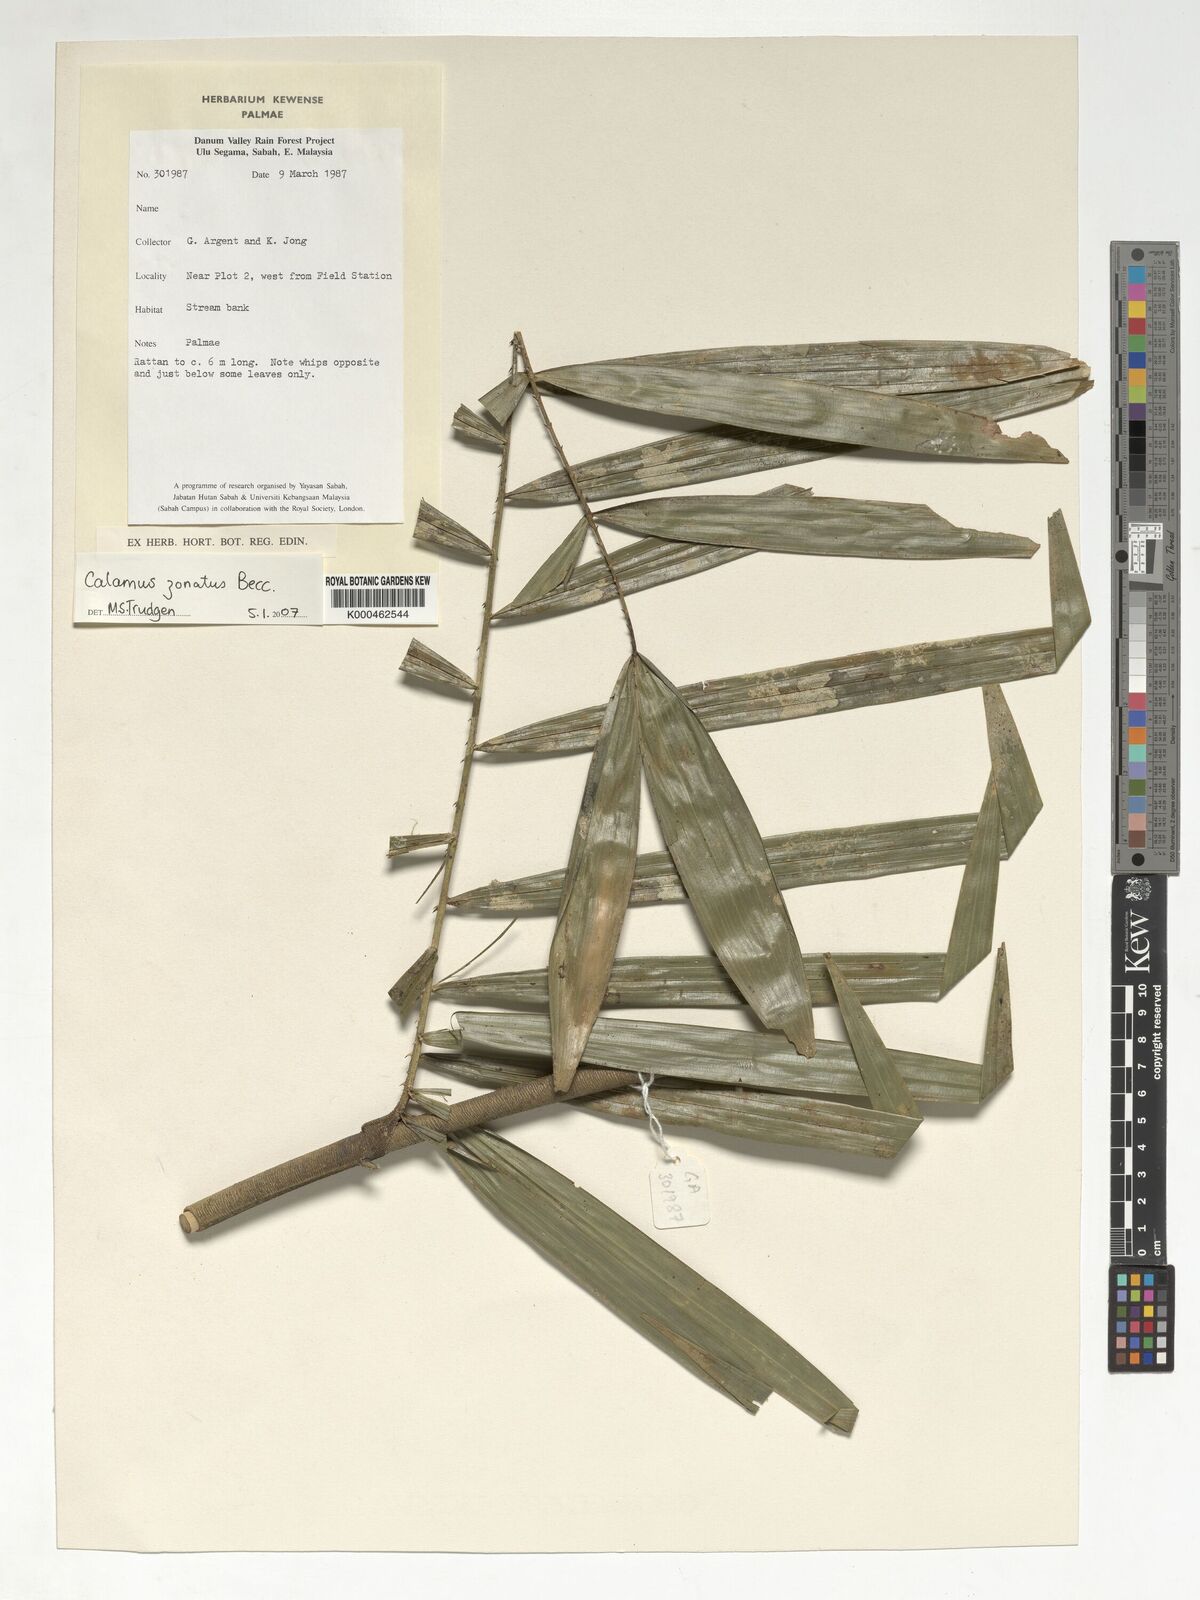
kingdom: Plantae
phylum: Tracheophyta
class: Liliopsida
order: Arecales
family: Arecaceae
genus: Calamus
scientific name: Calamus zonatus
